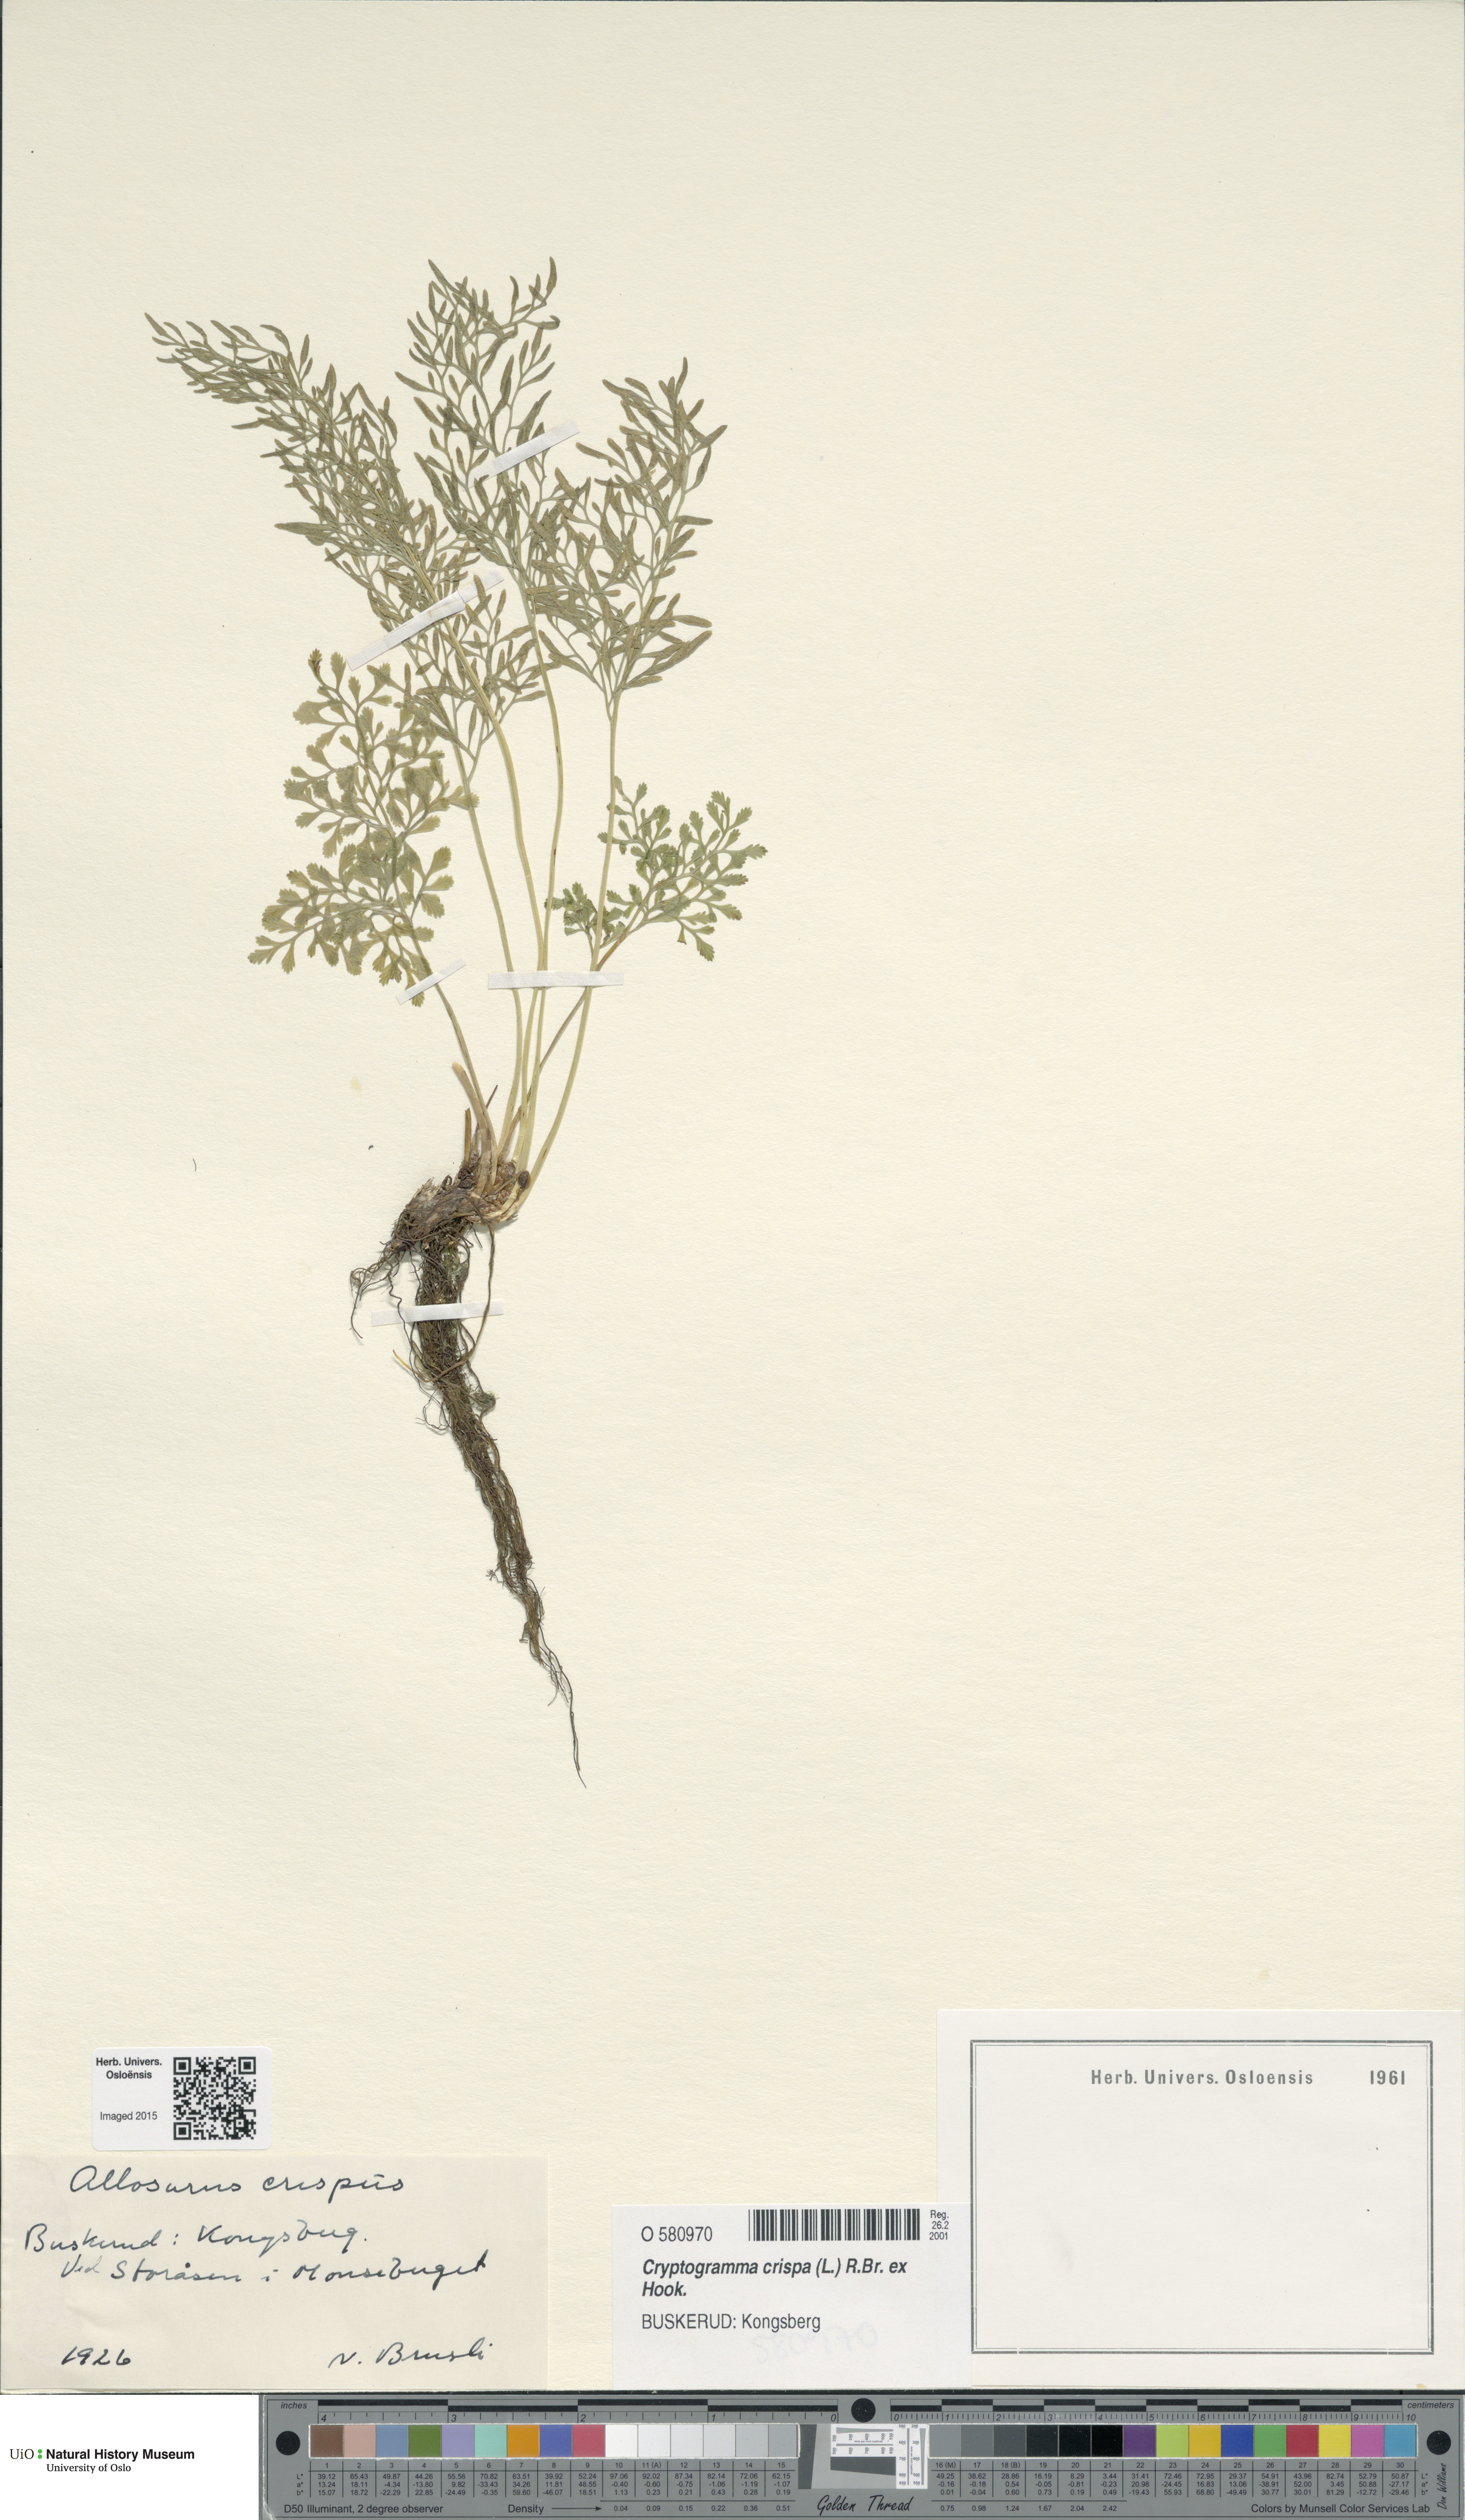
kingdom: Plantae
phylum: Tracheophyta
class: Polypodiopsida
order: Polypodiales
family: Pteridaceae
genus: Cryptogramma
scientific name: Cryptogramma crispa
